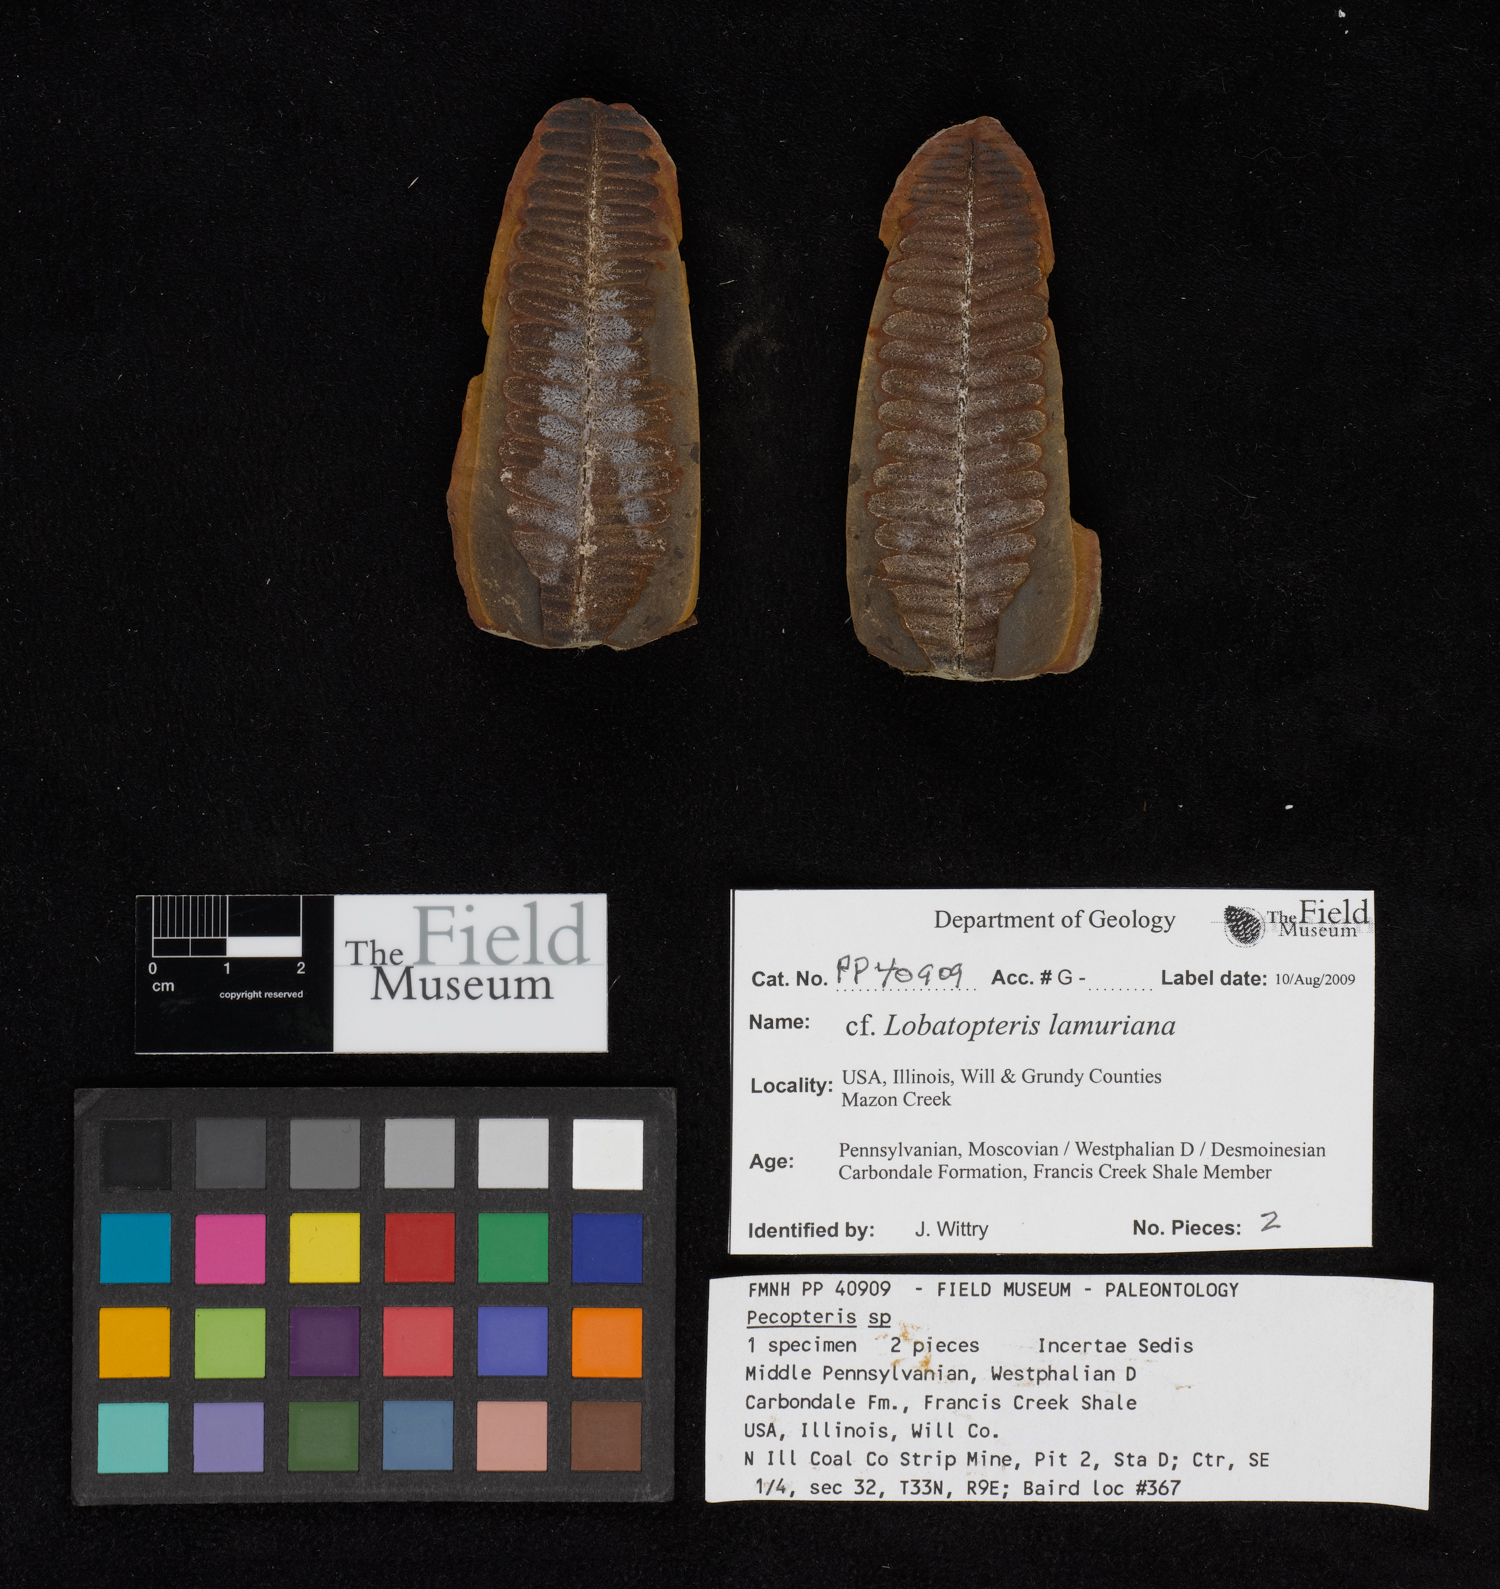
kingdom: Plantae
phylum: Tracheophyta
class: Polypodiopsida
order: Marattiales
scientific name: Marattiales
